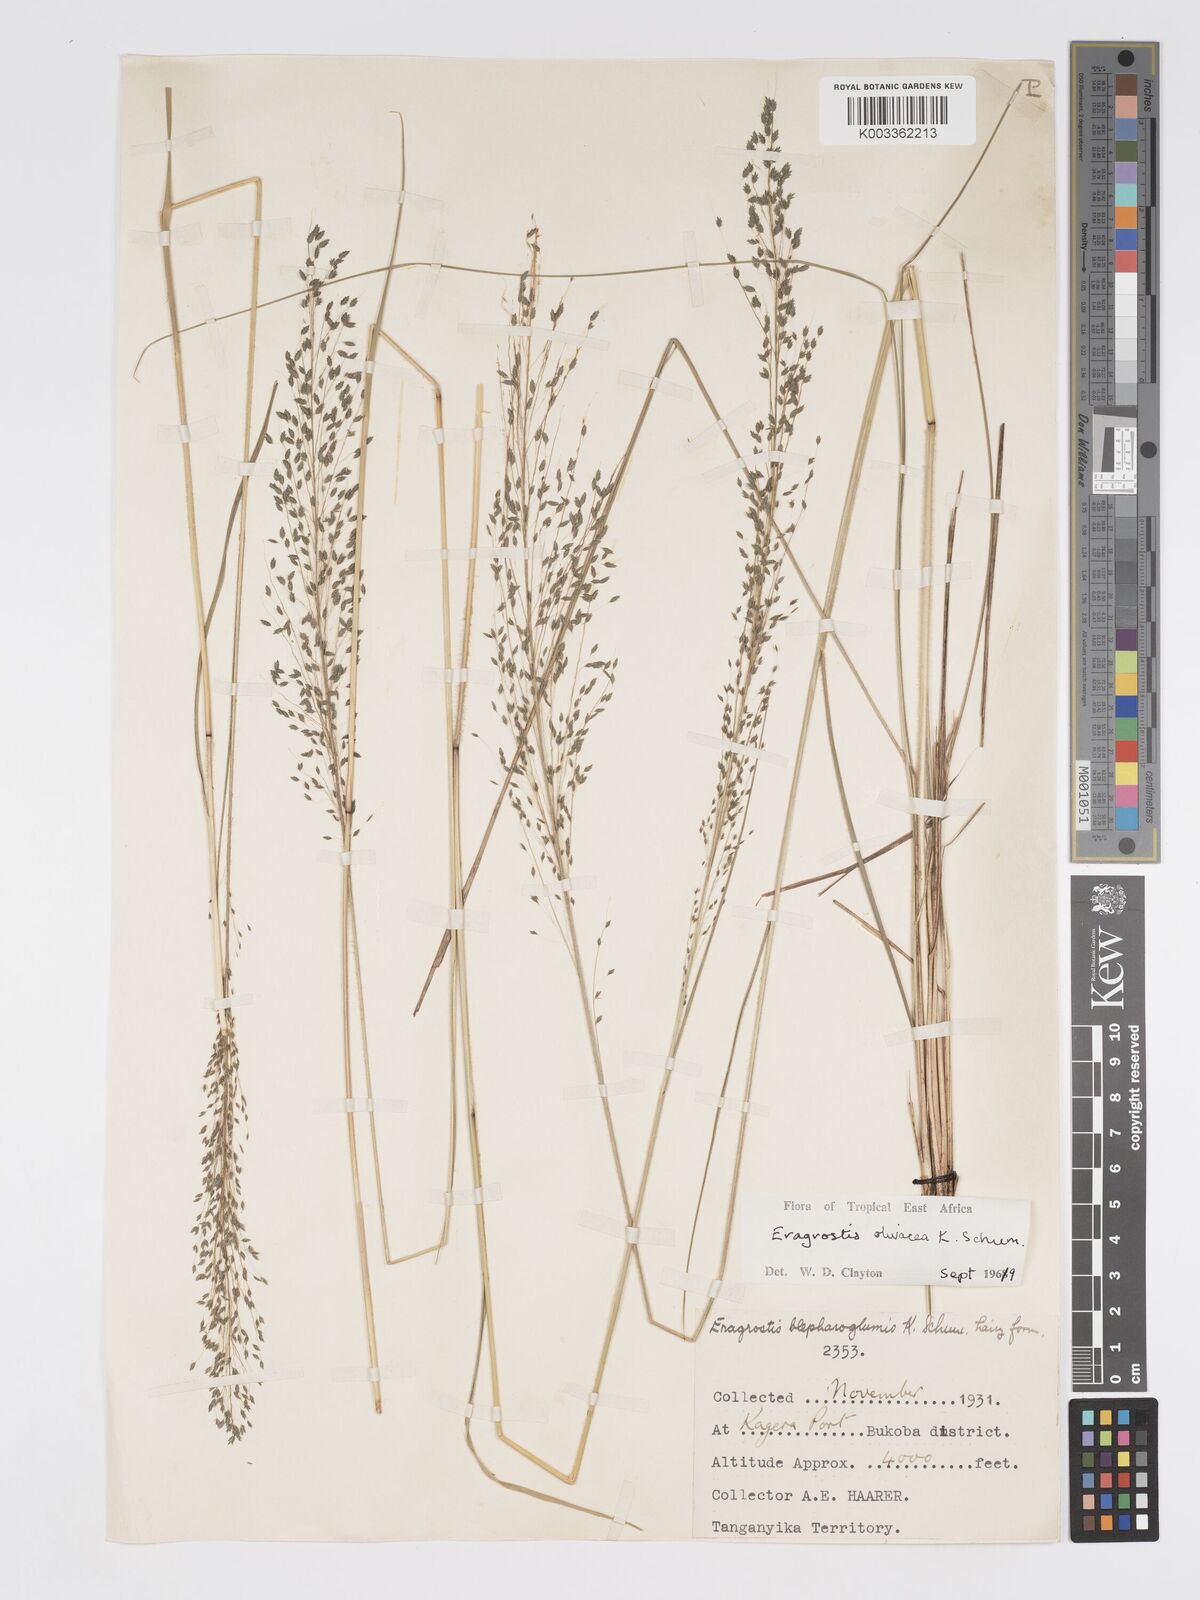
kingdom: Plantae
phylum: Tracheophyta
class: Liliopsida
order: Poales
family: Poaceae
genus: Eragrostis
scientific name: Eragrostis olivacea
